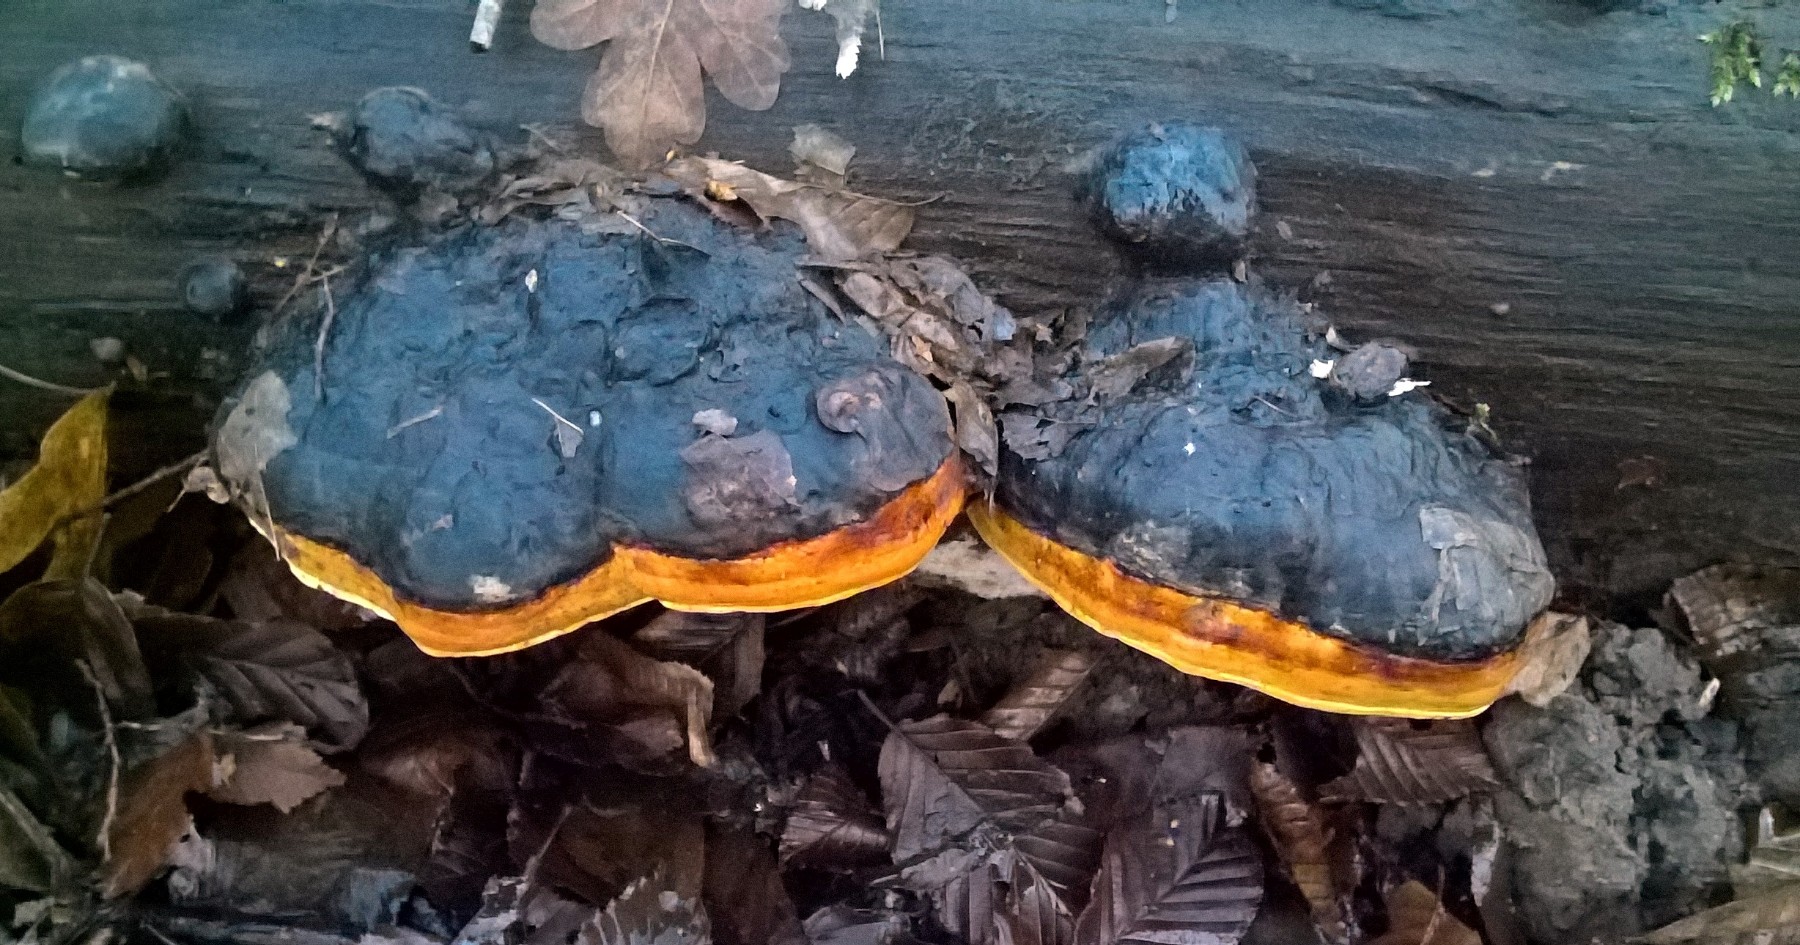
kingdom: Fungi
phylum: Basidiomycota
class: Agaricomycetes
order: Polyporales
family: Fomitopsidaceae
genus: Fomitopsis
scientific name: Fomitopsis pinicola
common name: randbæltet hovporesvamp
